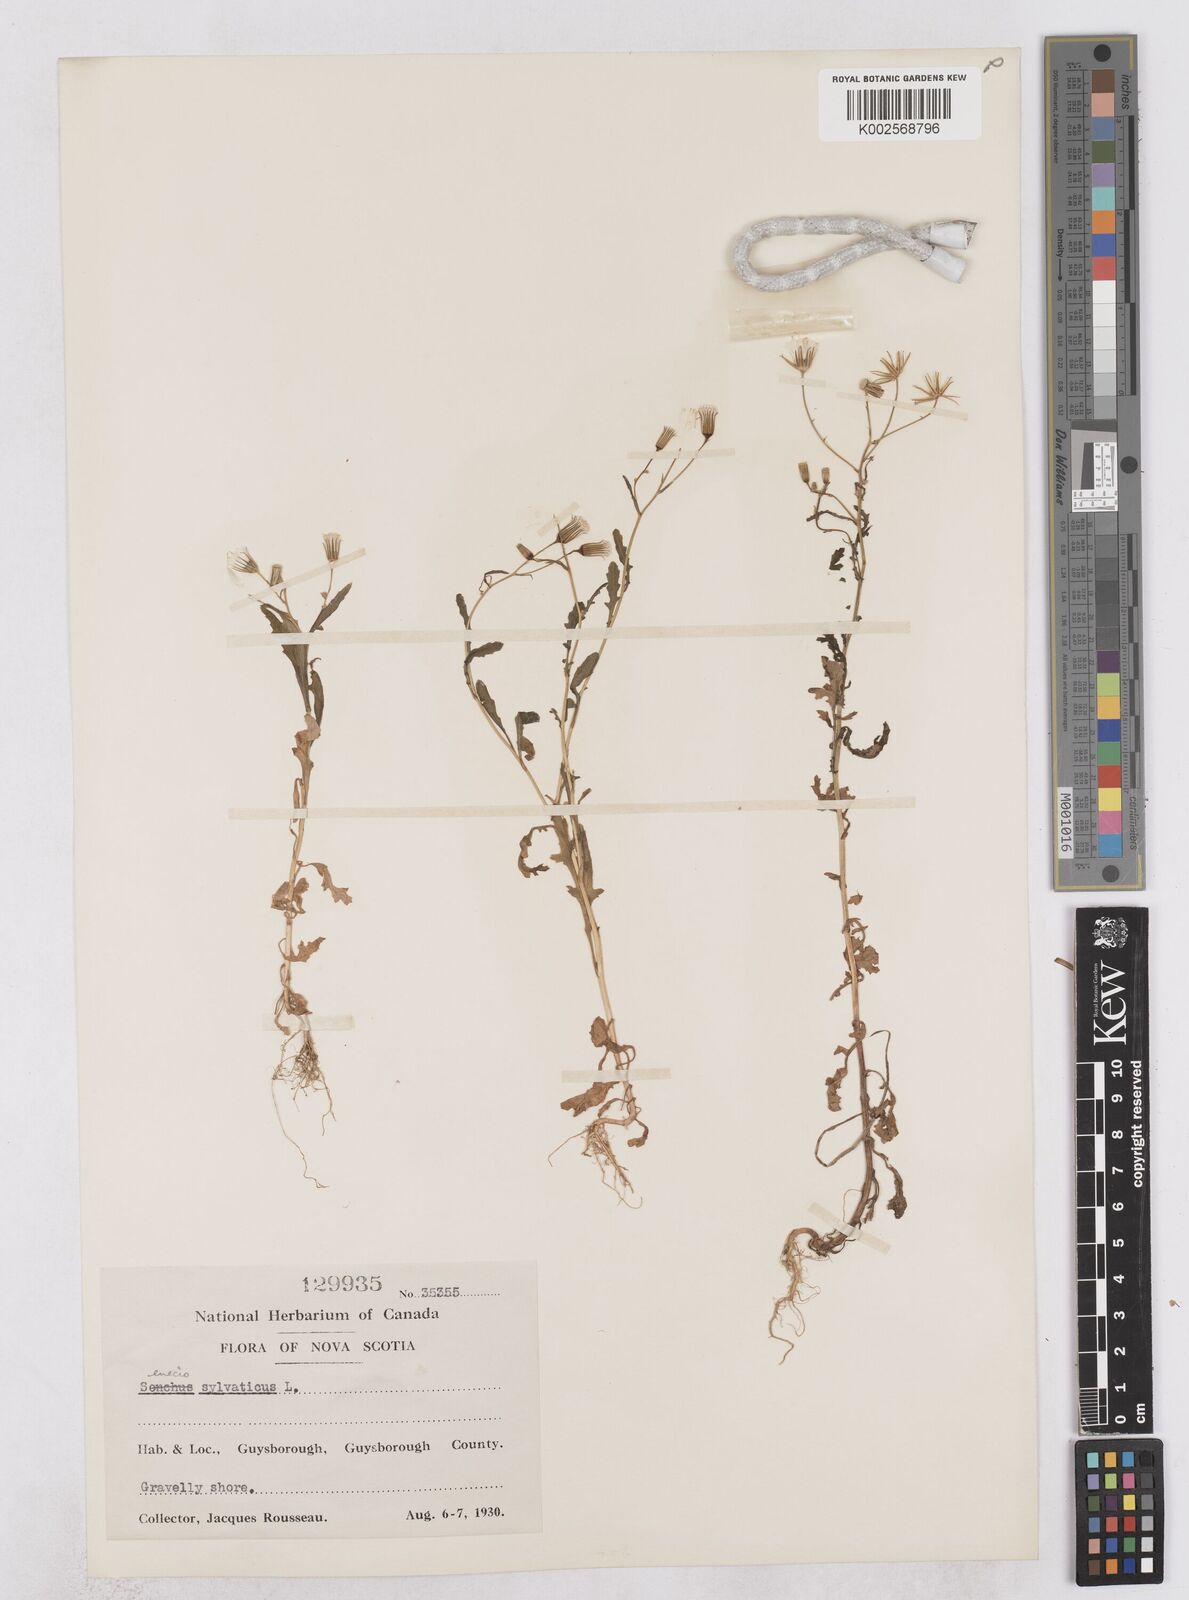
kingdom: Plantae
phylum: Tracheophyta
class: Magnoliopsida
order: Asterales
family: Asteraceae
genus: Senecio
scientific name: Senecio sylvaticus
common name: Woodland ragwort
